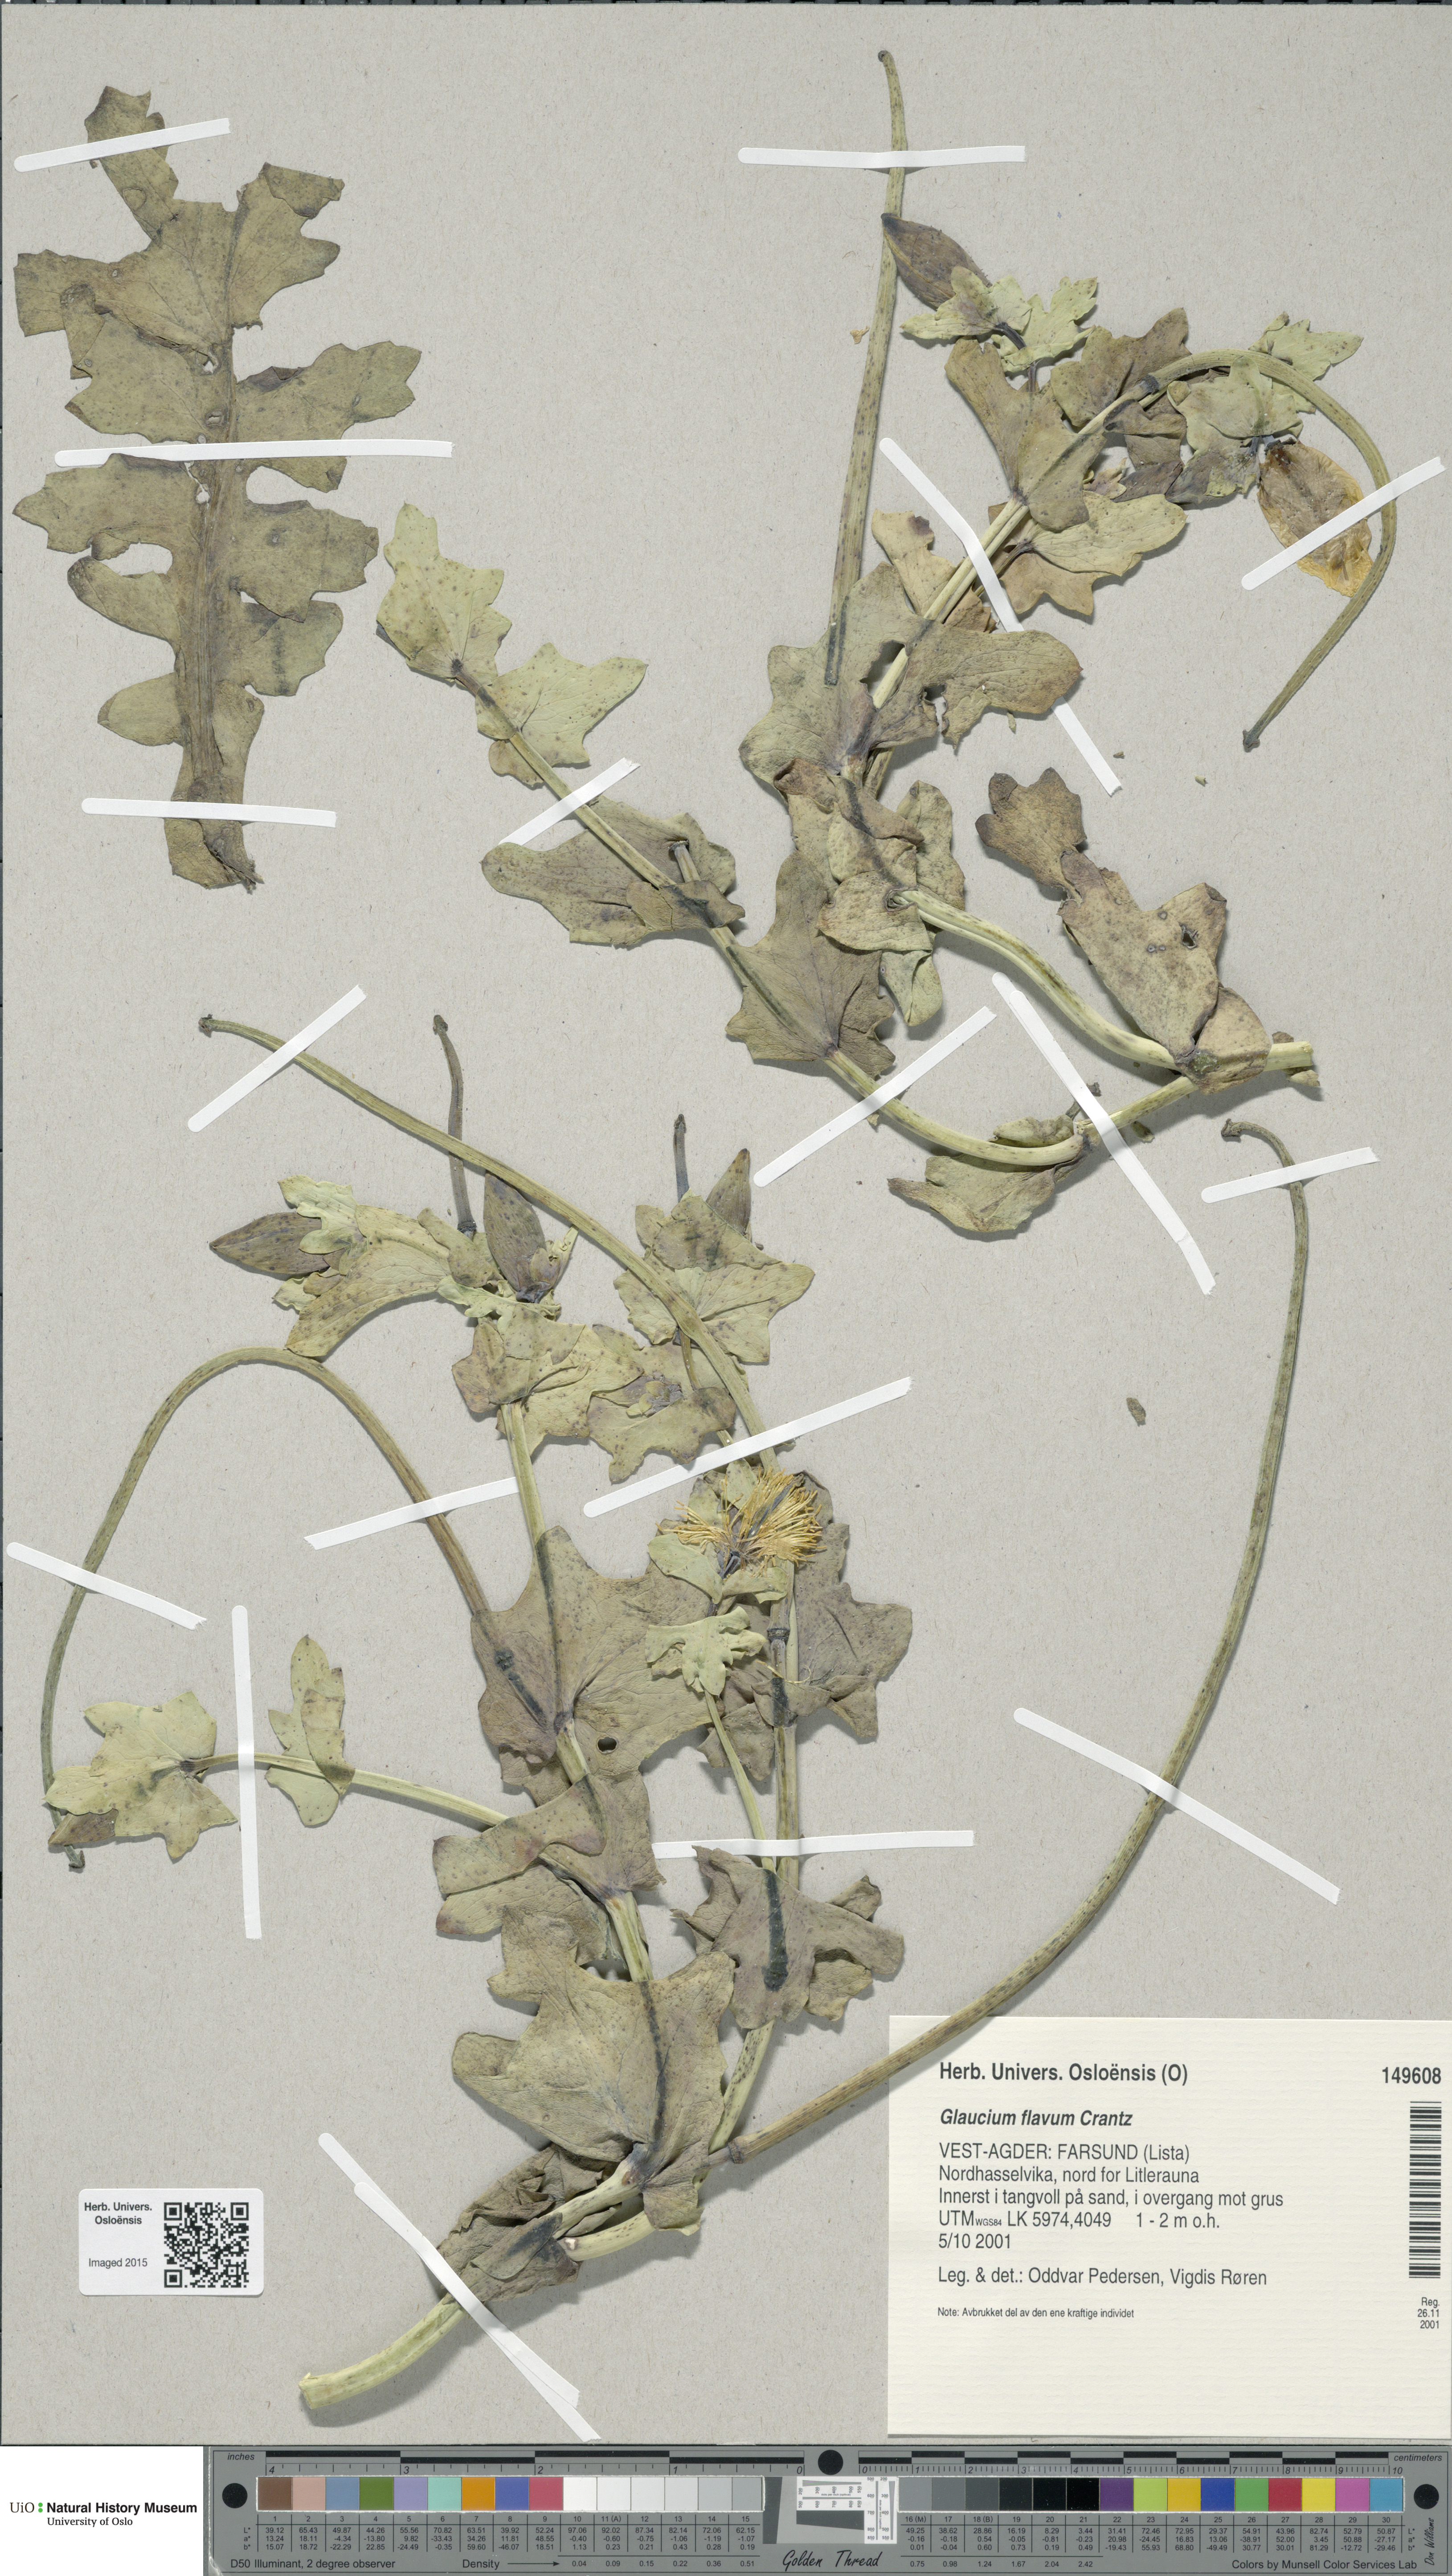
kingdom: Plantae
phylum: Tracheophyta
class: Magnoliopsida
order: Ranunculales
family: Papaveraceae
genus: Glaucium
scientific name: Glaucium flavum
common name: Yellow horned-poppy
